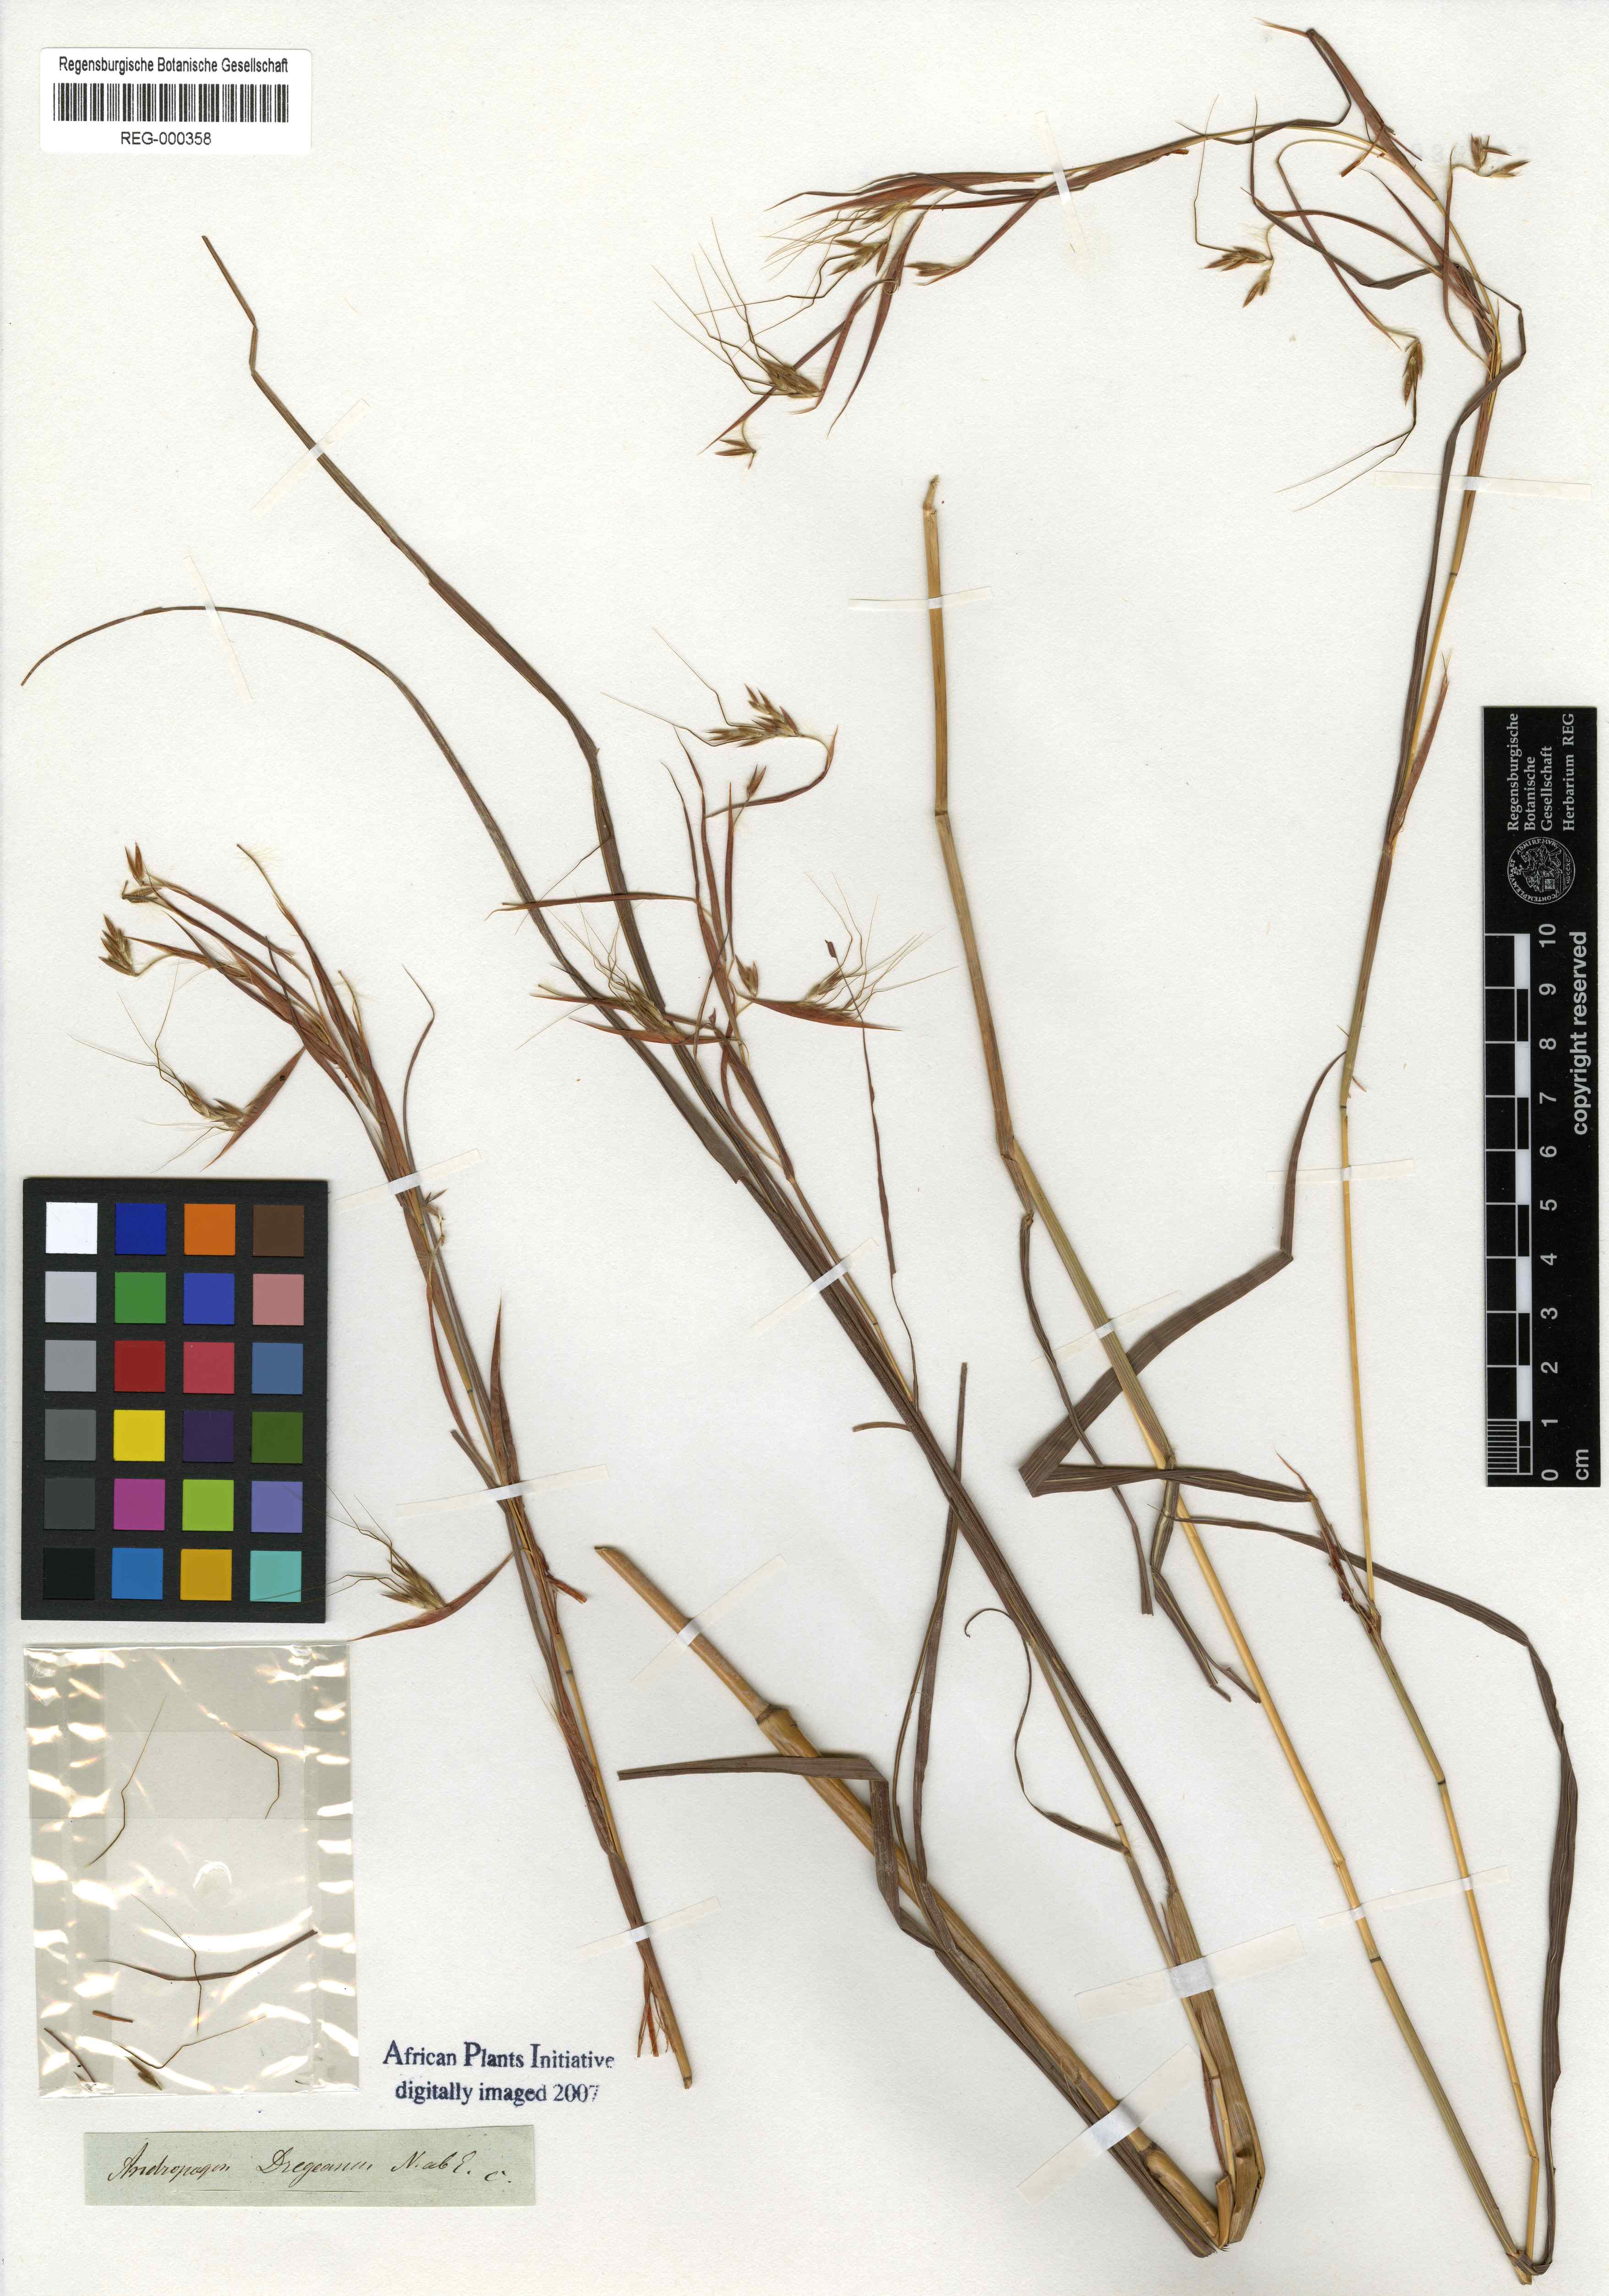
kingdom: Plantae
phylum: Tracheophyta
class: Liliopsida
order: Poales
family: Poaceae
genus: Hyparrhenia
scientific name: Hyparrhenia dregeana
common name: Silky thatching grass
